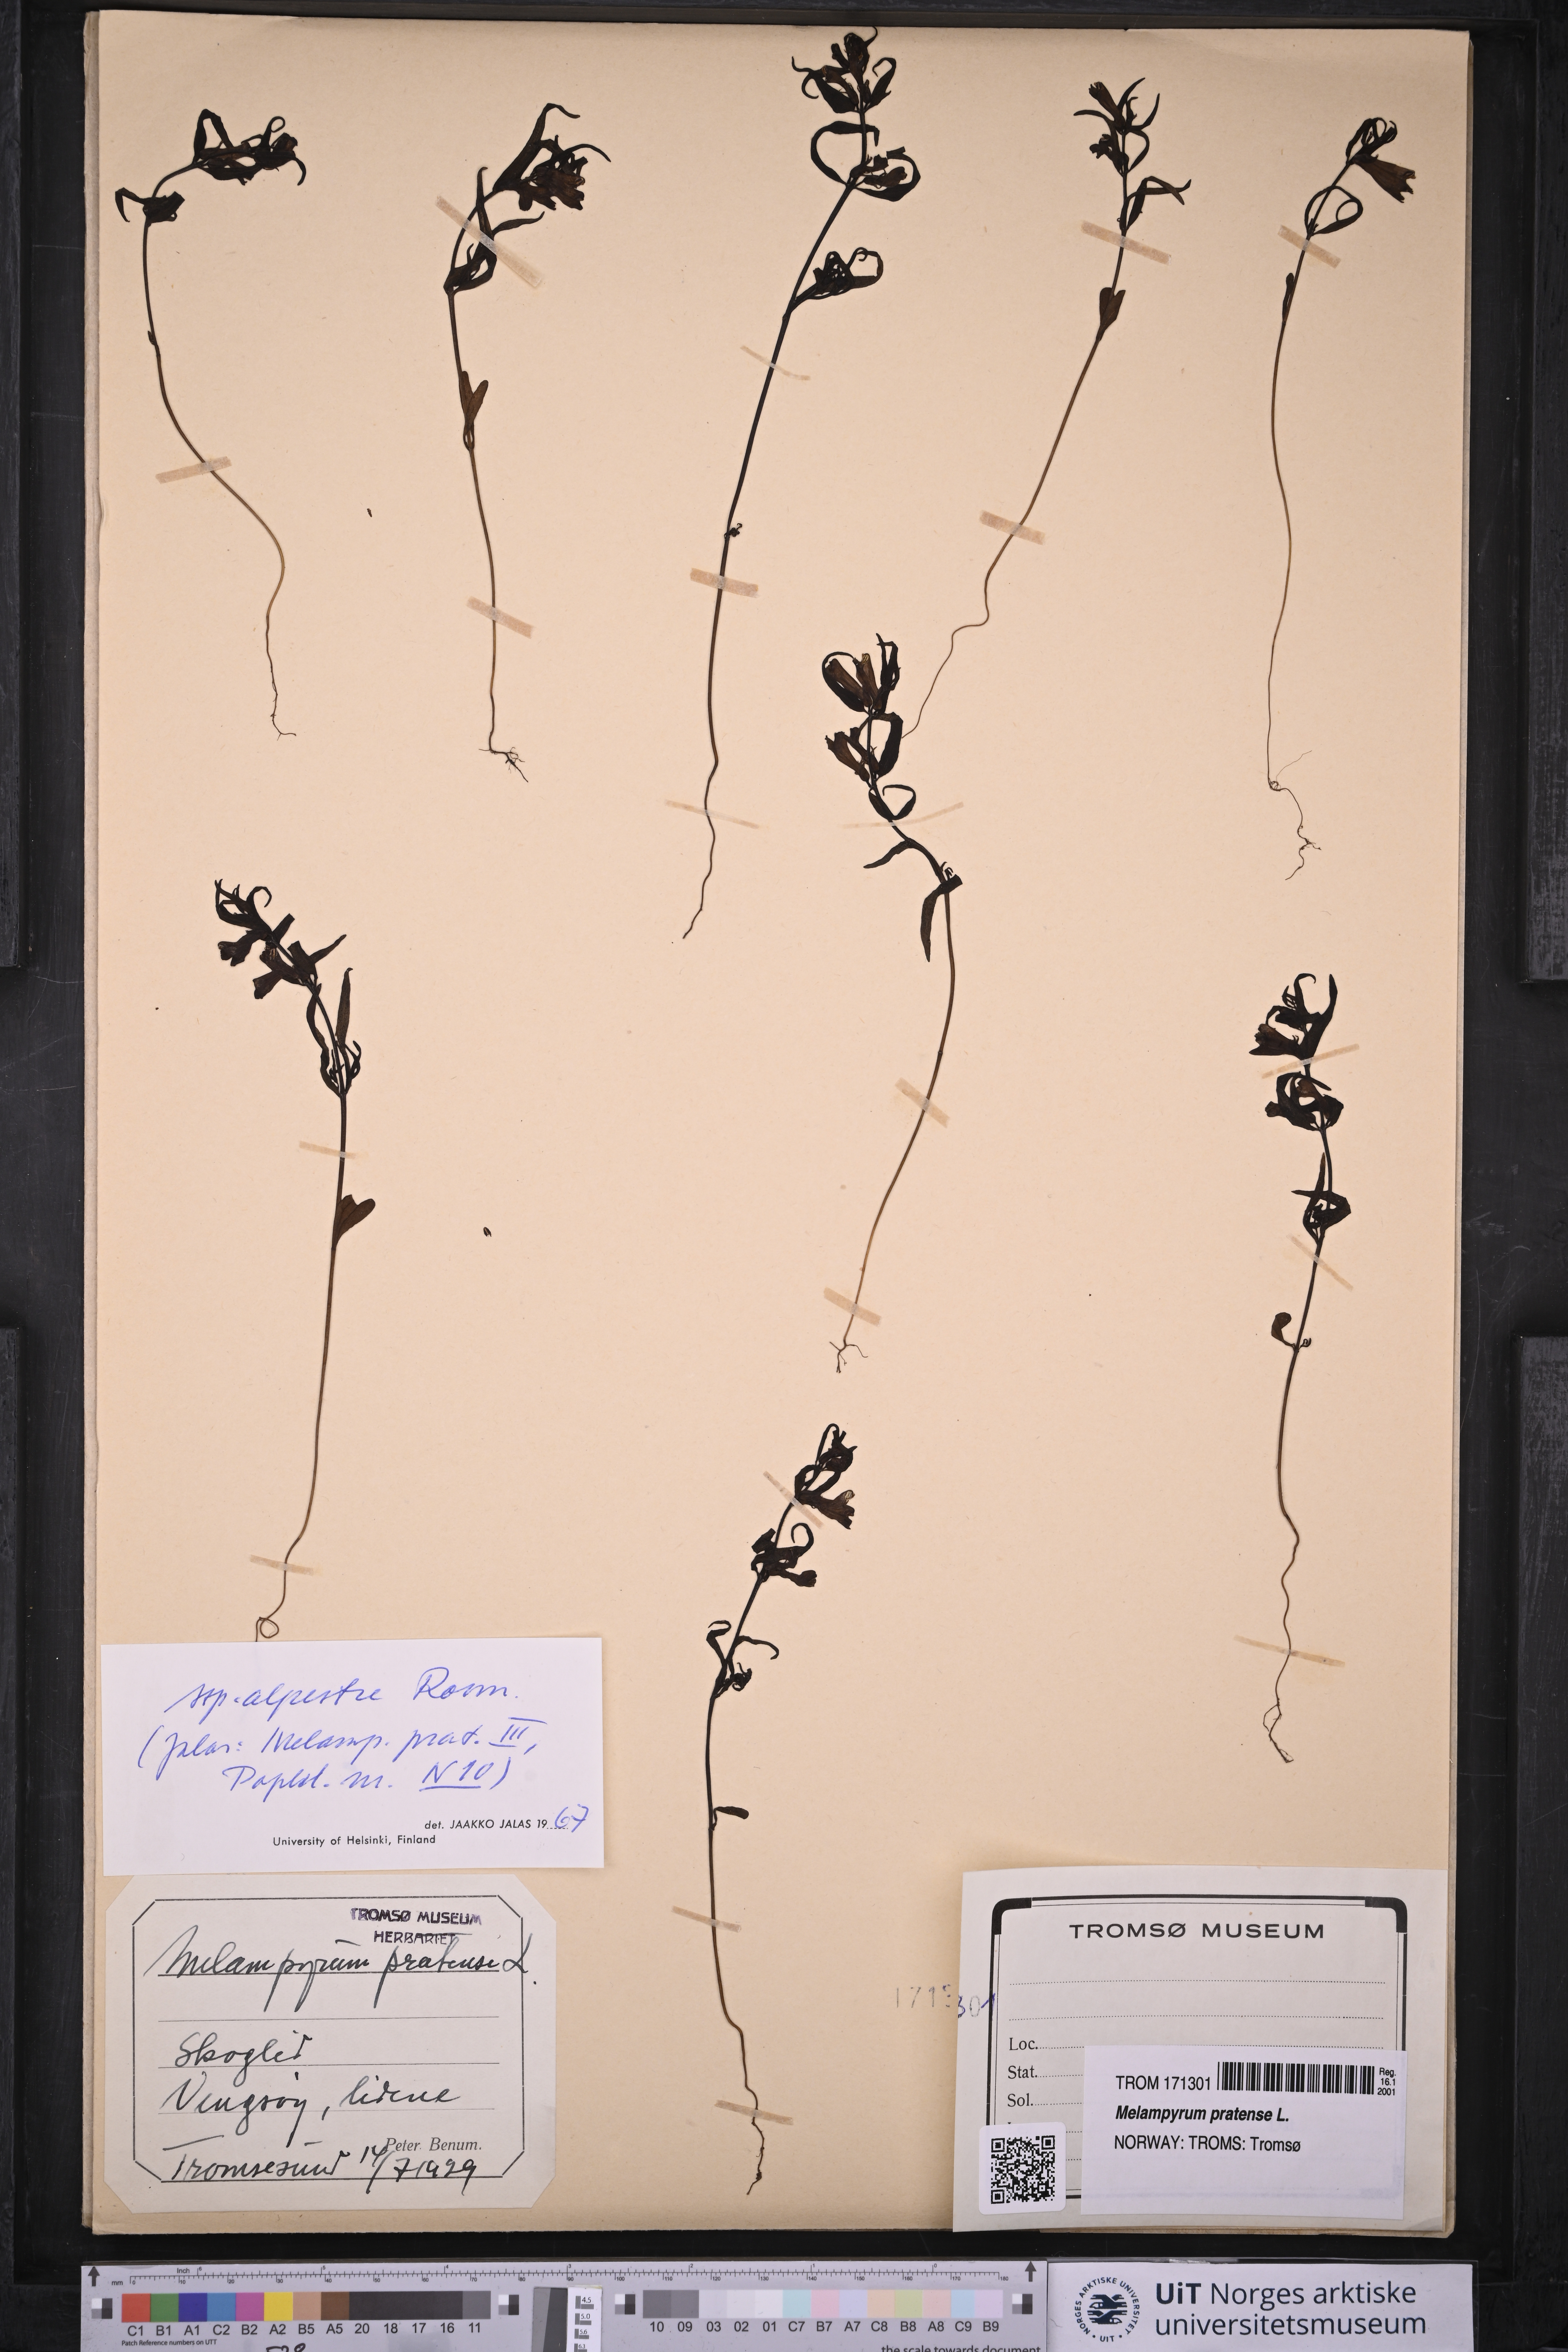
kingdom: Plantae
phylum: Tracheophyta
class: Magnoliopsida
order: Lamiales
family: Orobanchaceae
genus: Melampyrum
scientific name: Melampyrum pratense
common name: Common cow-wheat
